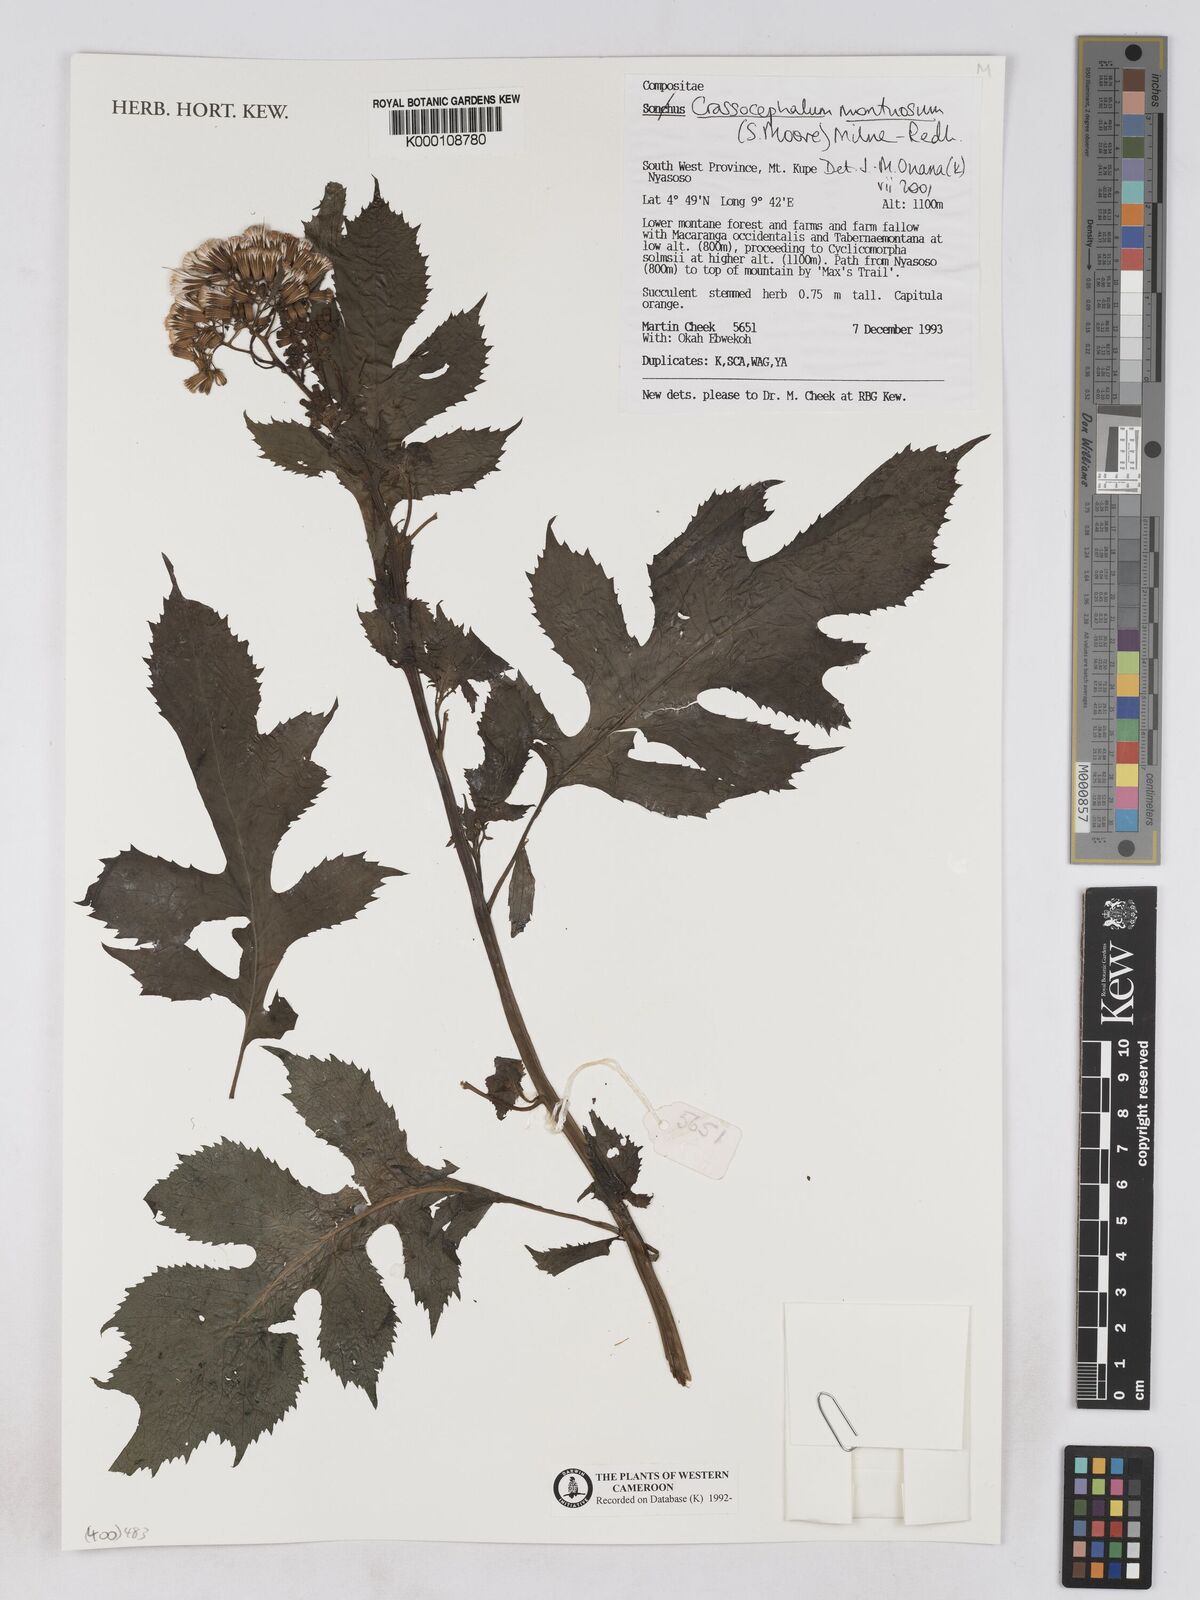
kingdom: Plantae
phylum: Tracheophyta
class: Magnoliopsida
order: Asterales
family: Asteraceae
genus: Crassocephalum
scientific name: Crassocephalum montuosum
